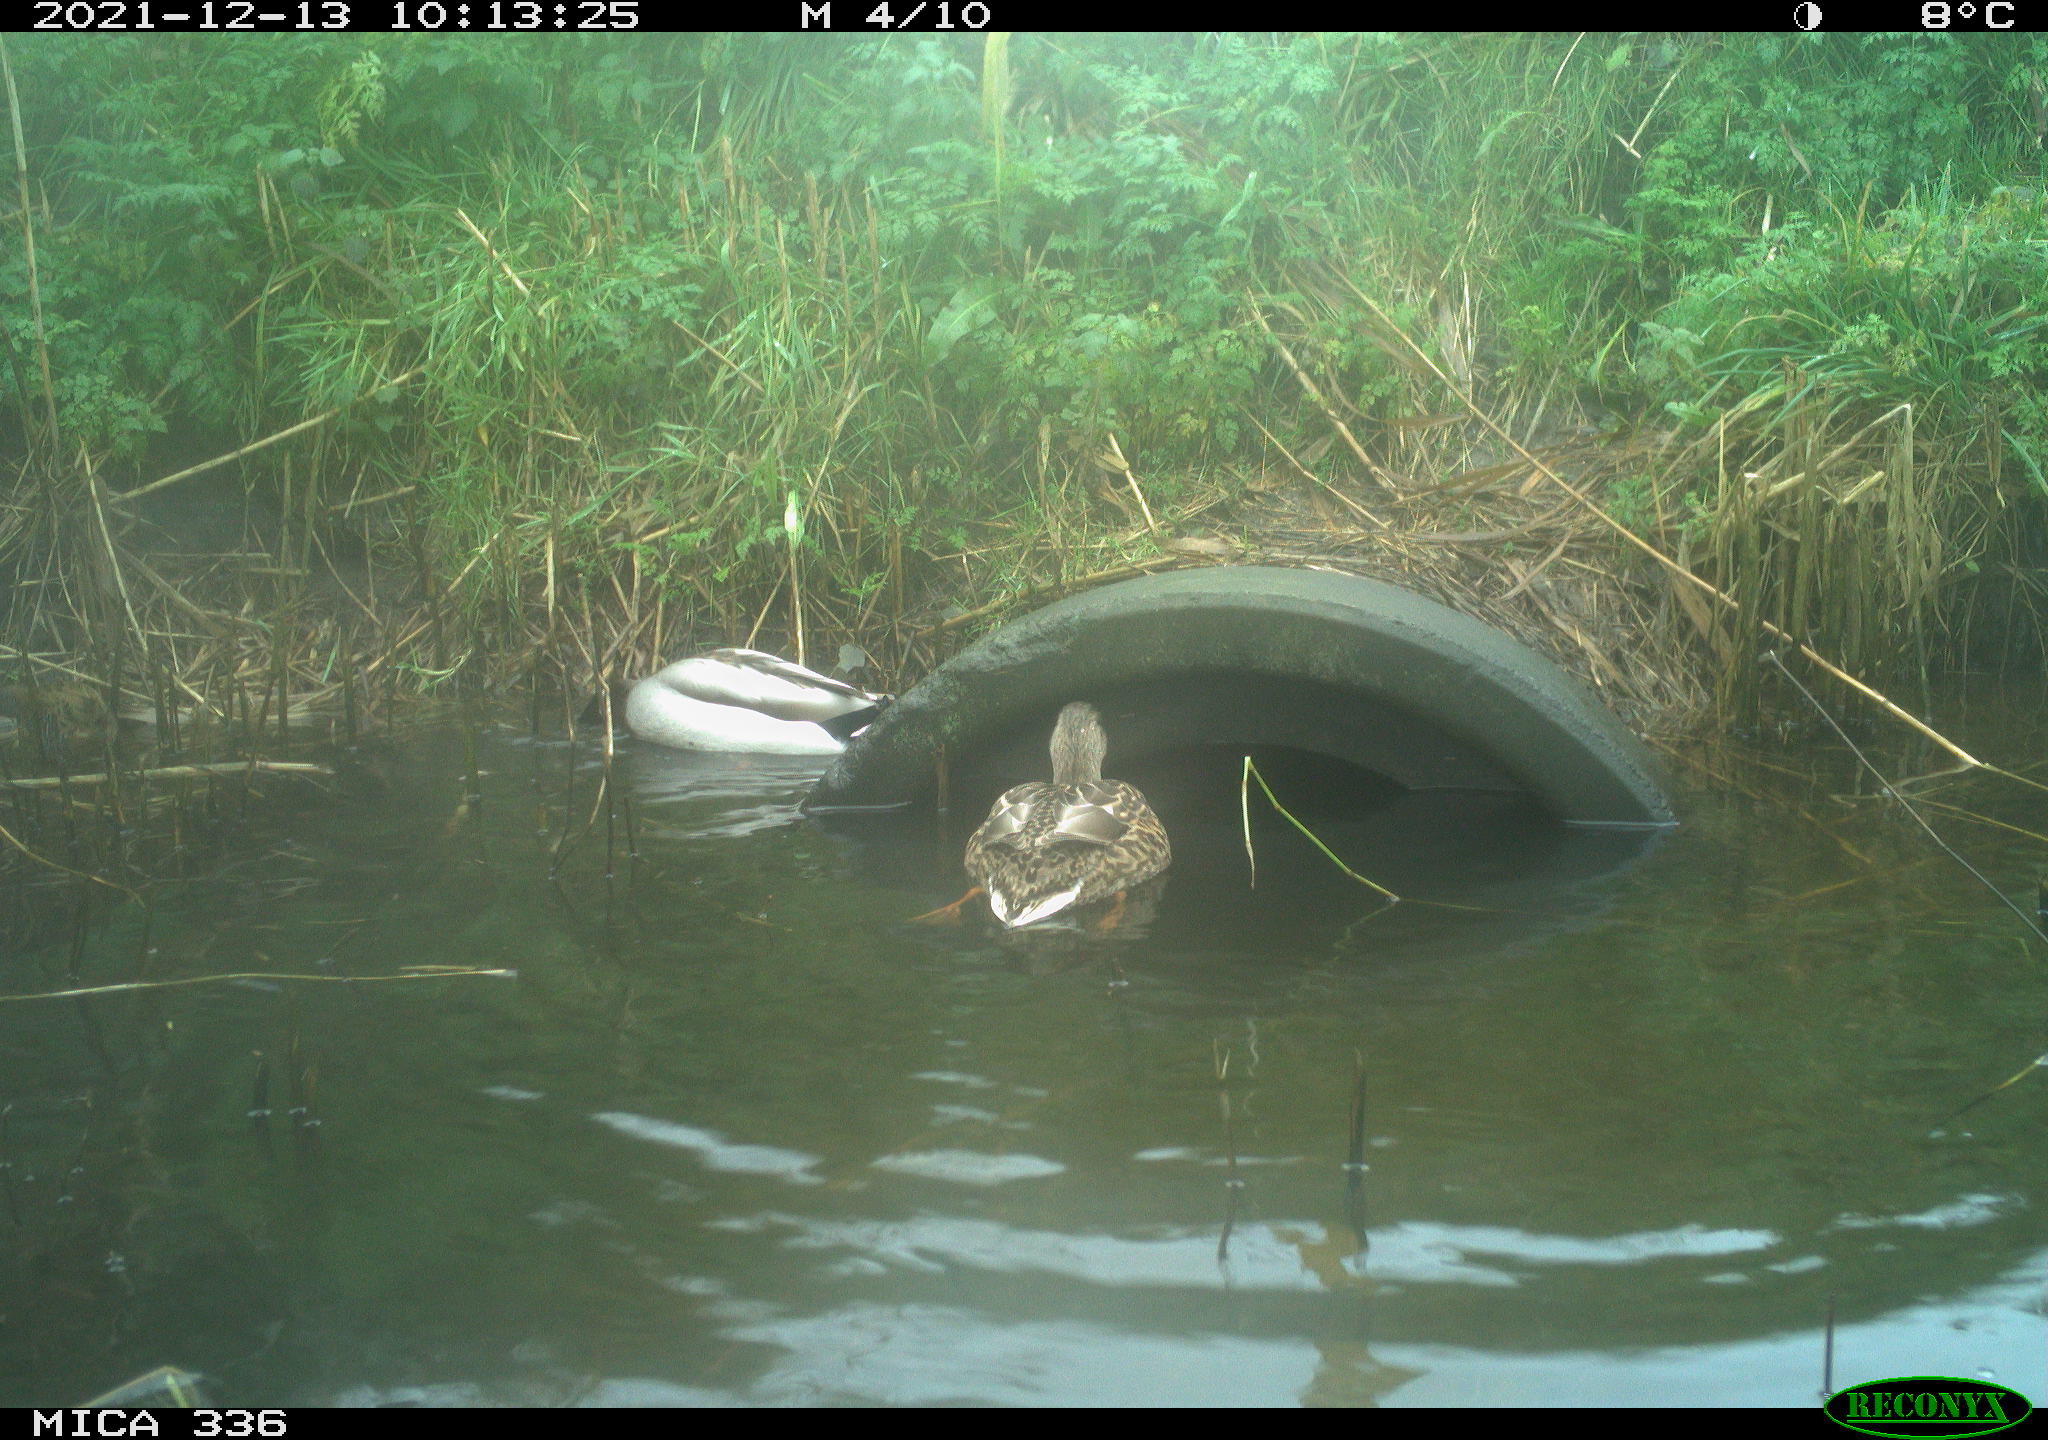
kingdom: Animalia
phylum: Chordata
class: Aves
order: Anseriformes
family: Anatidae
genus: Anas
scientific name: Anas platyrhynchos
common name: Mallard
